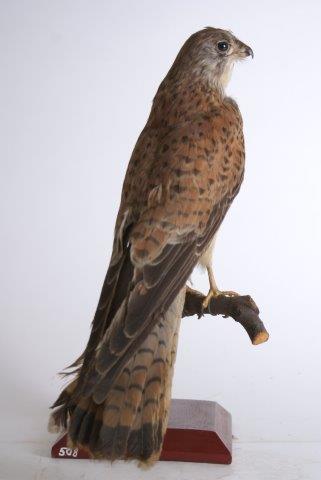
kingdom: Animalia
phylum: Chordata
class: Aves
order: Falconiformes
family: Falconidae
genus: Falco
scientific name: Falco tinnunculus
